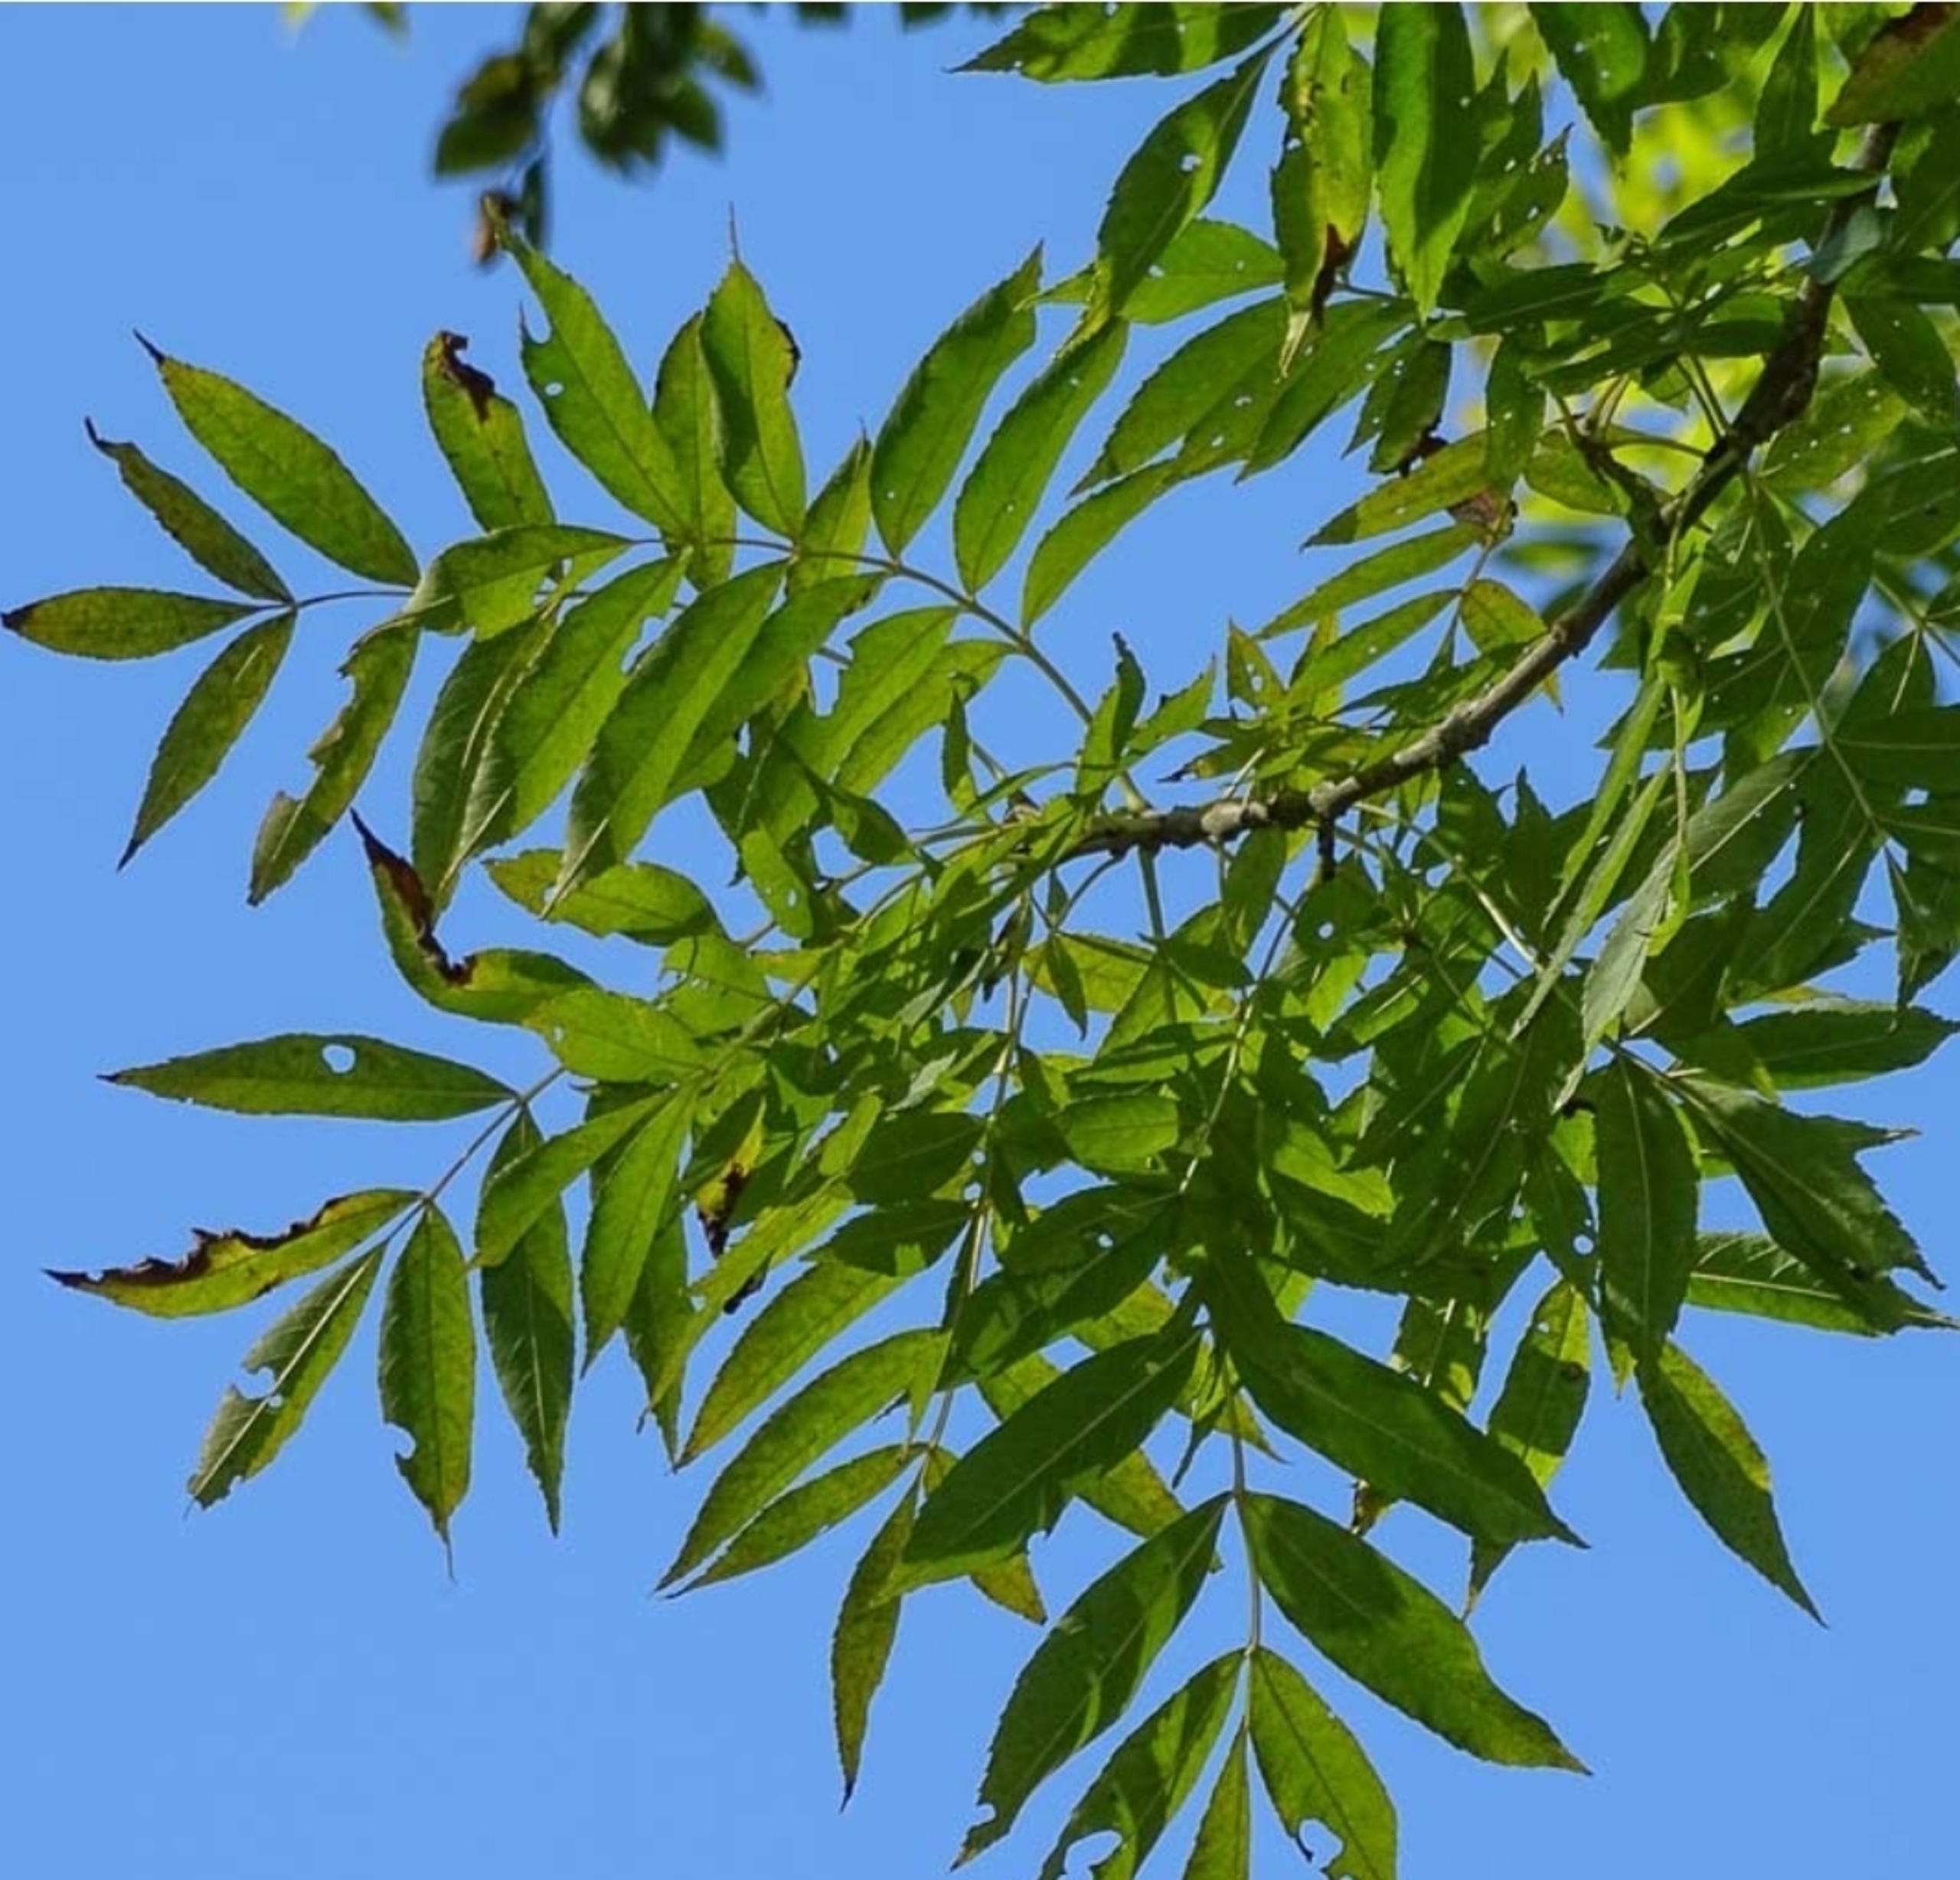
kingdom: Plantae
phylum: Tracheophyta
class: Magnoliopsida
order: Lamiales
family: Oleaceae
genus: Fraxinus
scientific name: Fraxinus excelsior
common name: Ask
